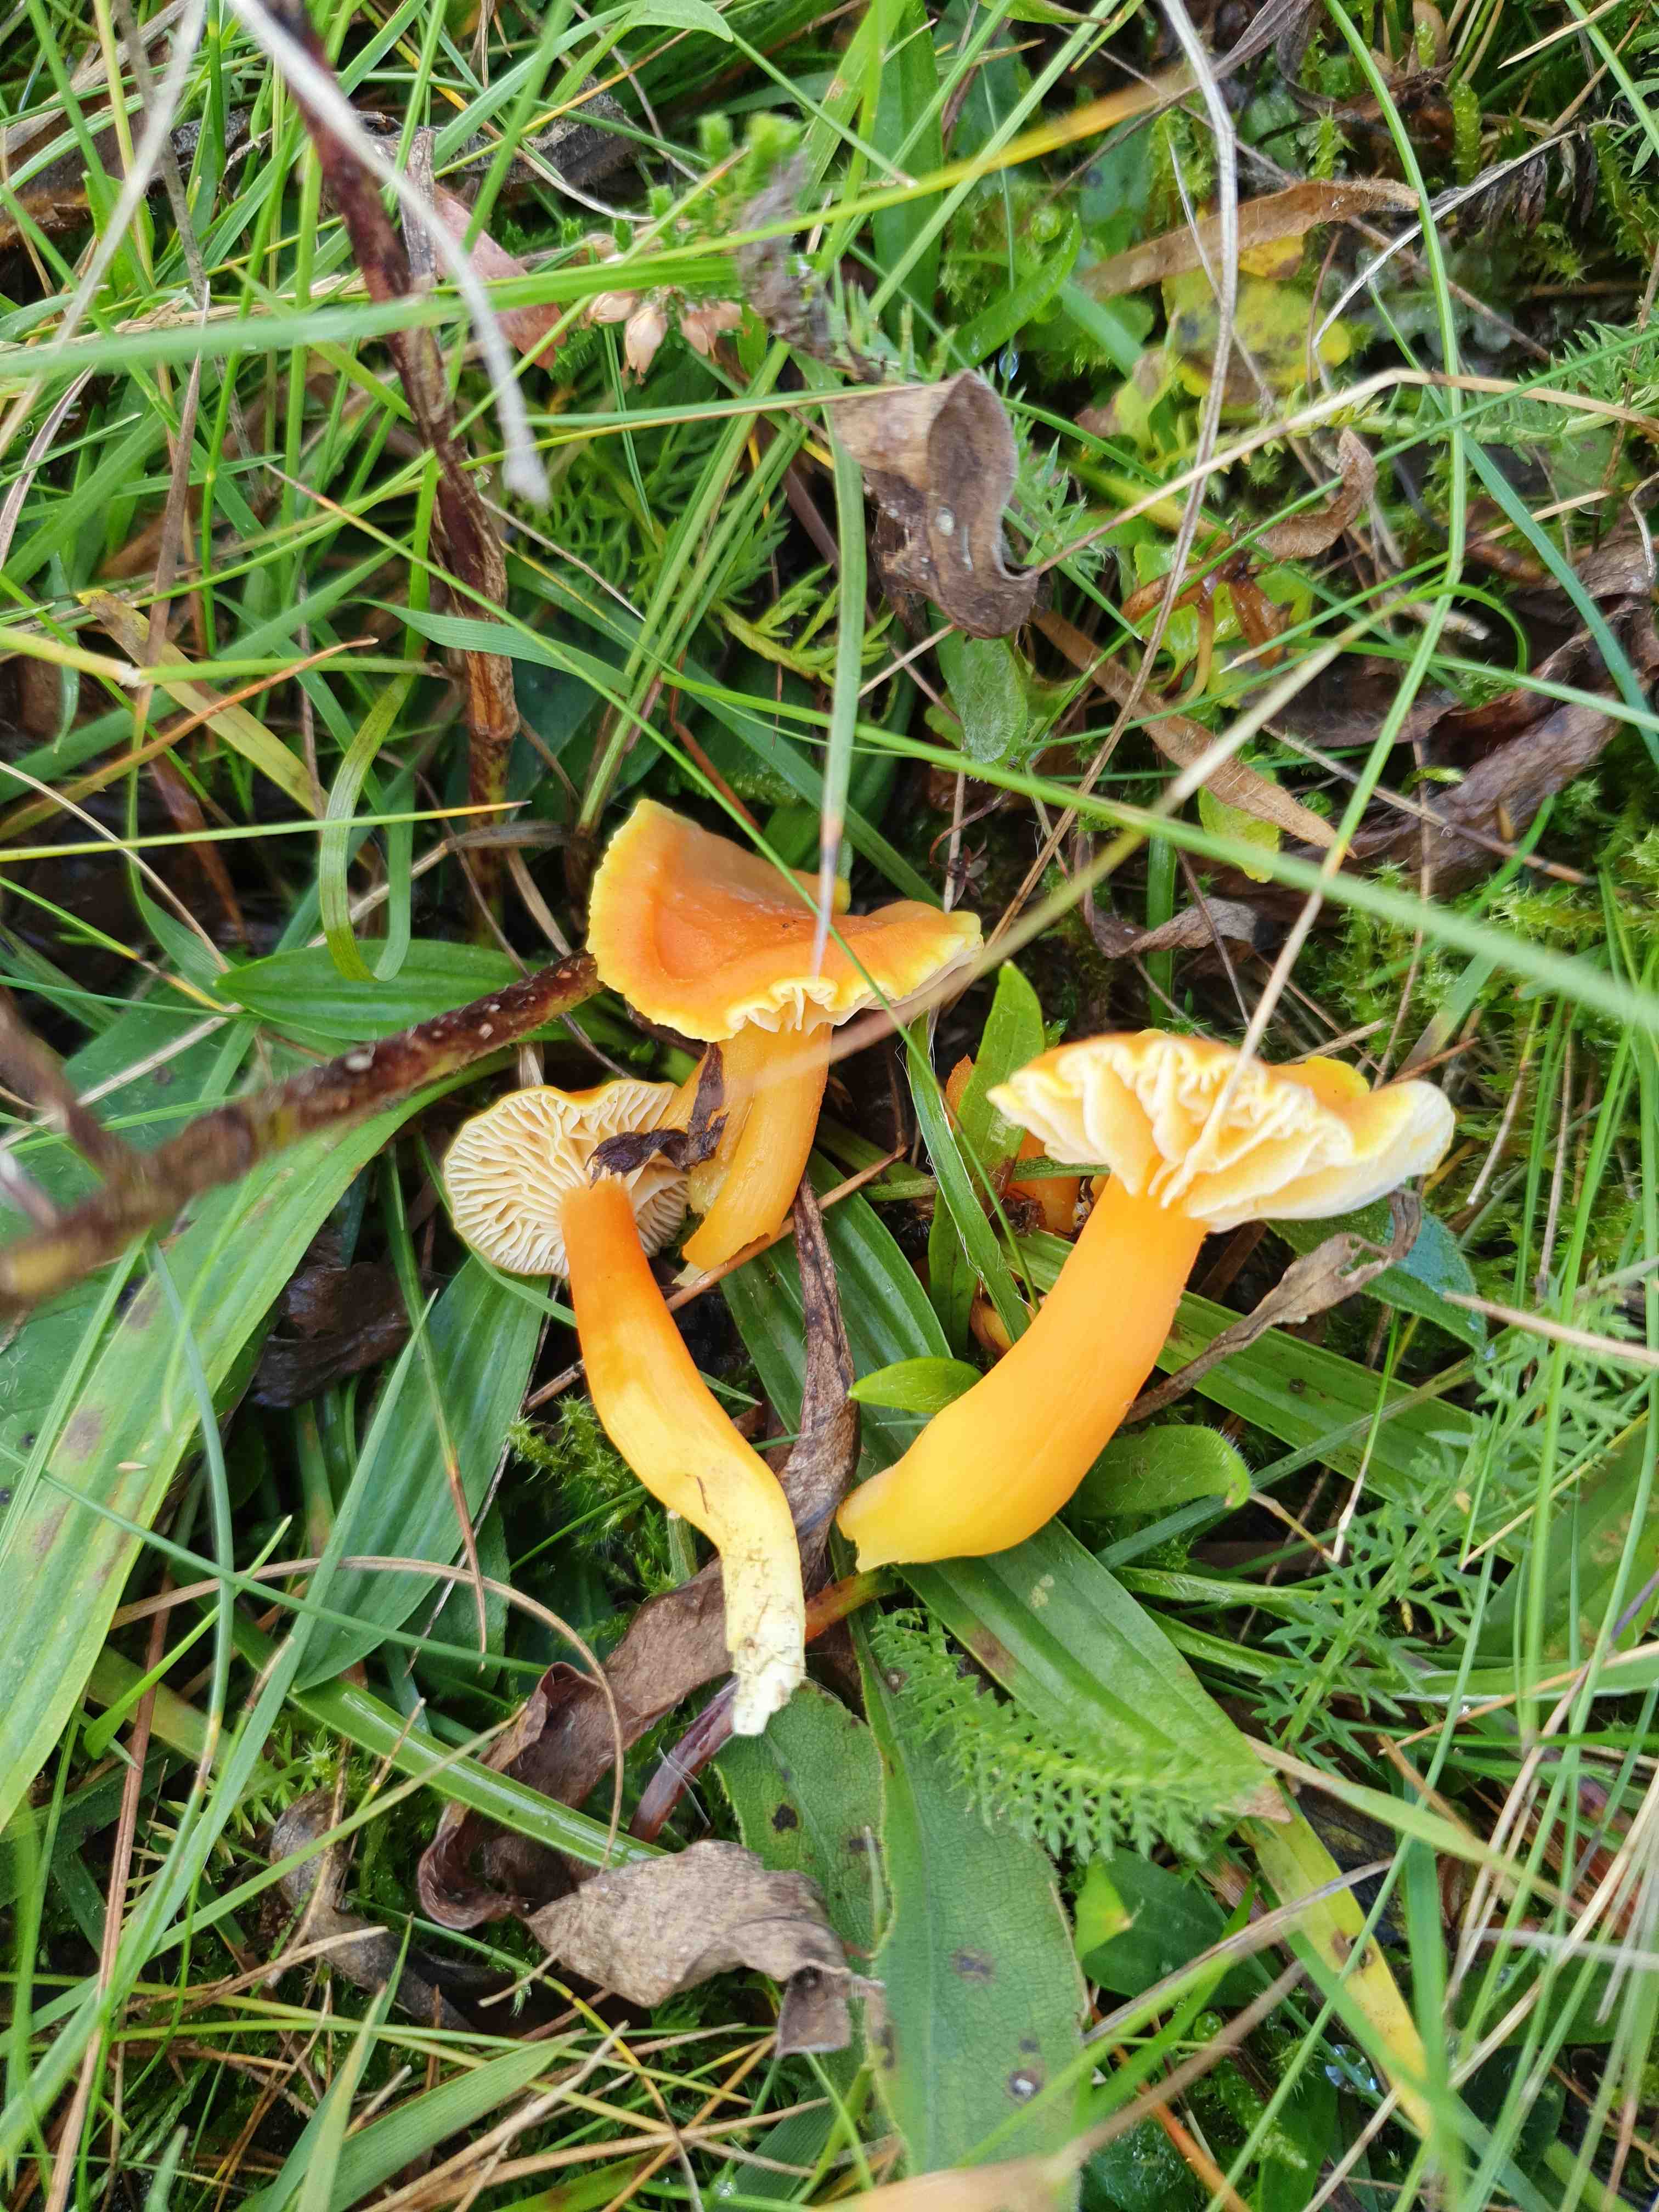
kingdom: Fungi
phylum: Basidiomycota
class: Agaricomycetes
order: Agaricales
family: Hygrophoraceae
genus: Hygrocybe
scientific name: Hygrocybe reidii
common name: honning-vokshat
